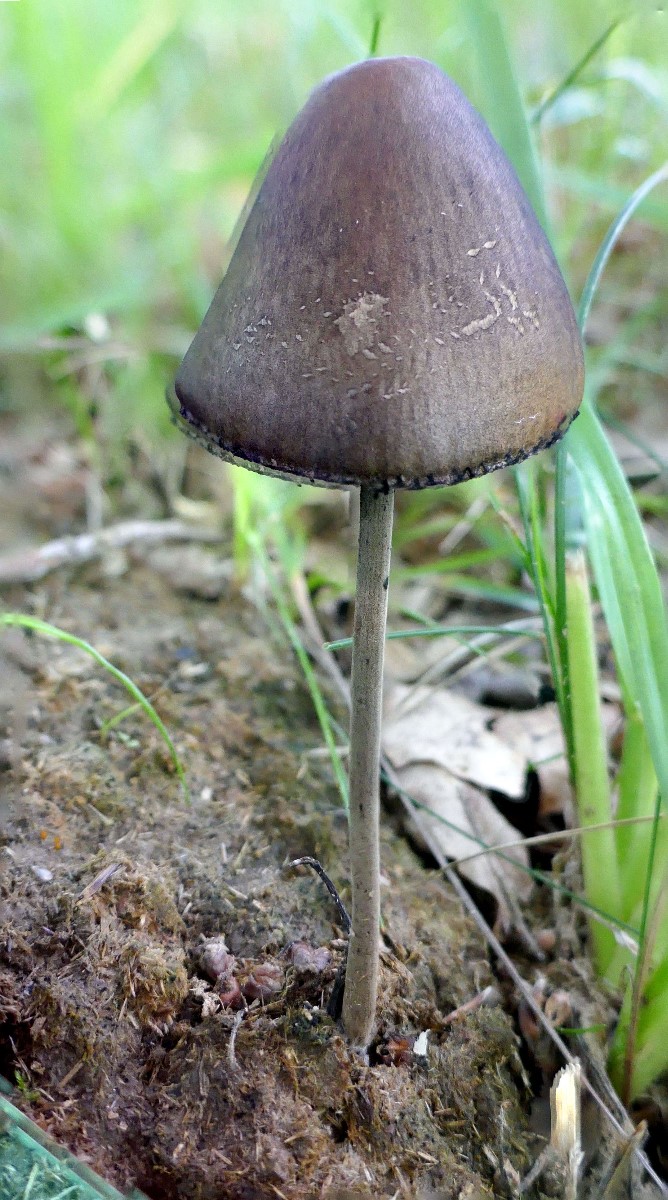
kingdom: Fungi
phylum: Basidiomycota
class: Agaricomycetes
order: Agaricales
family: Bolbitiaceae
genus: Panaeolus
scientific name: Panaeolus papilionaceus
